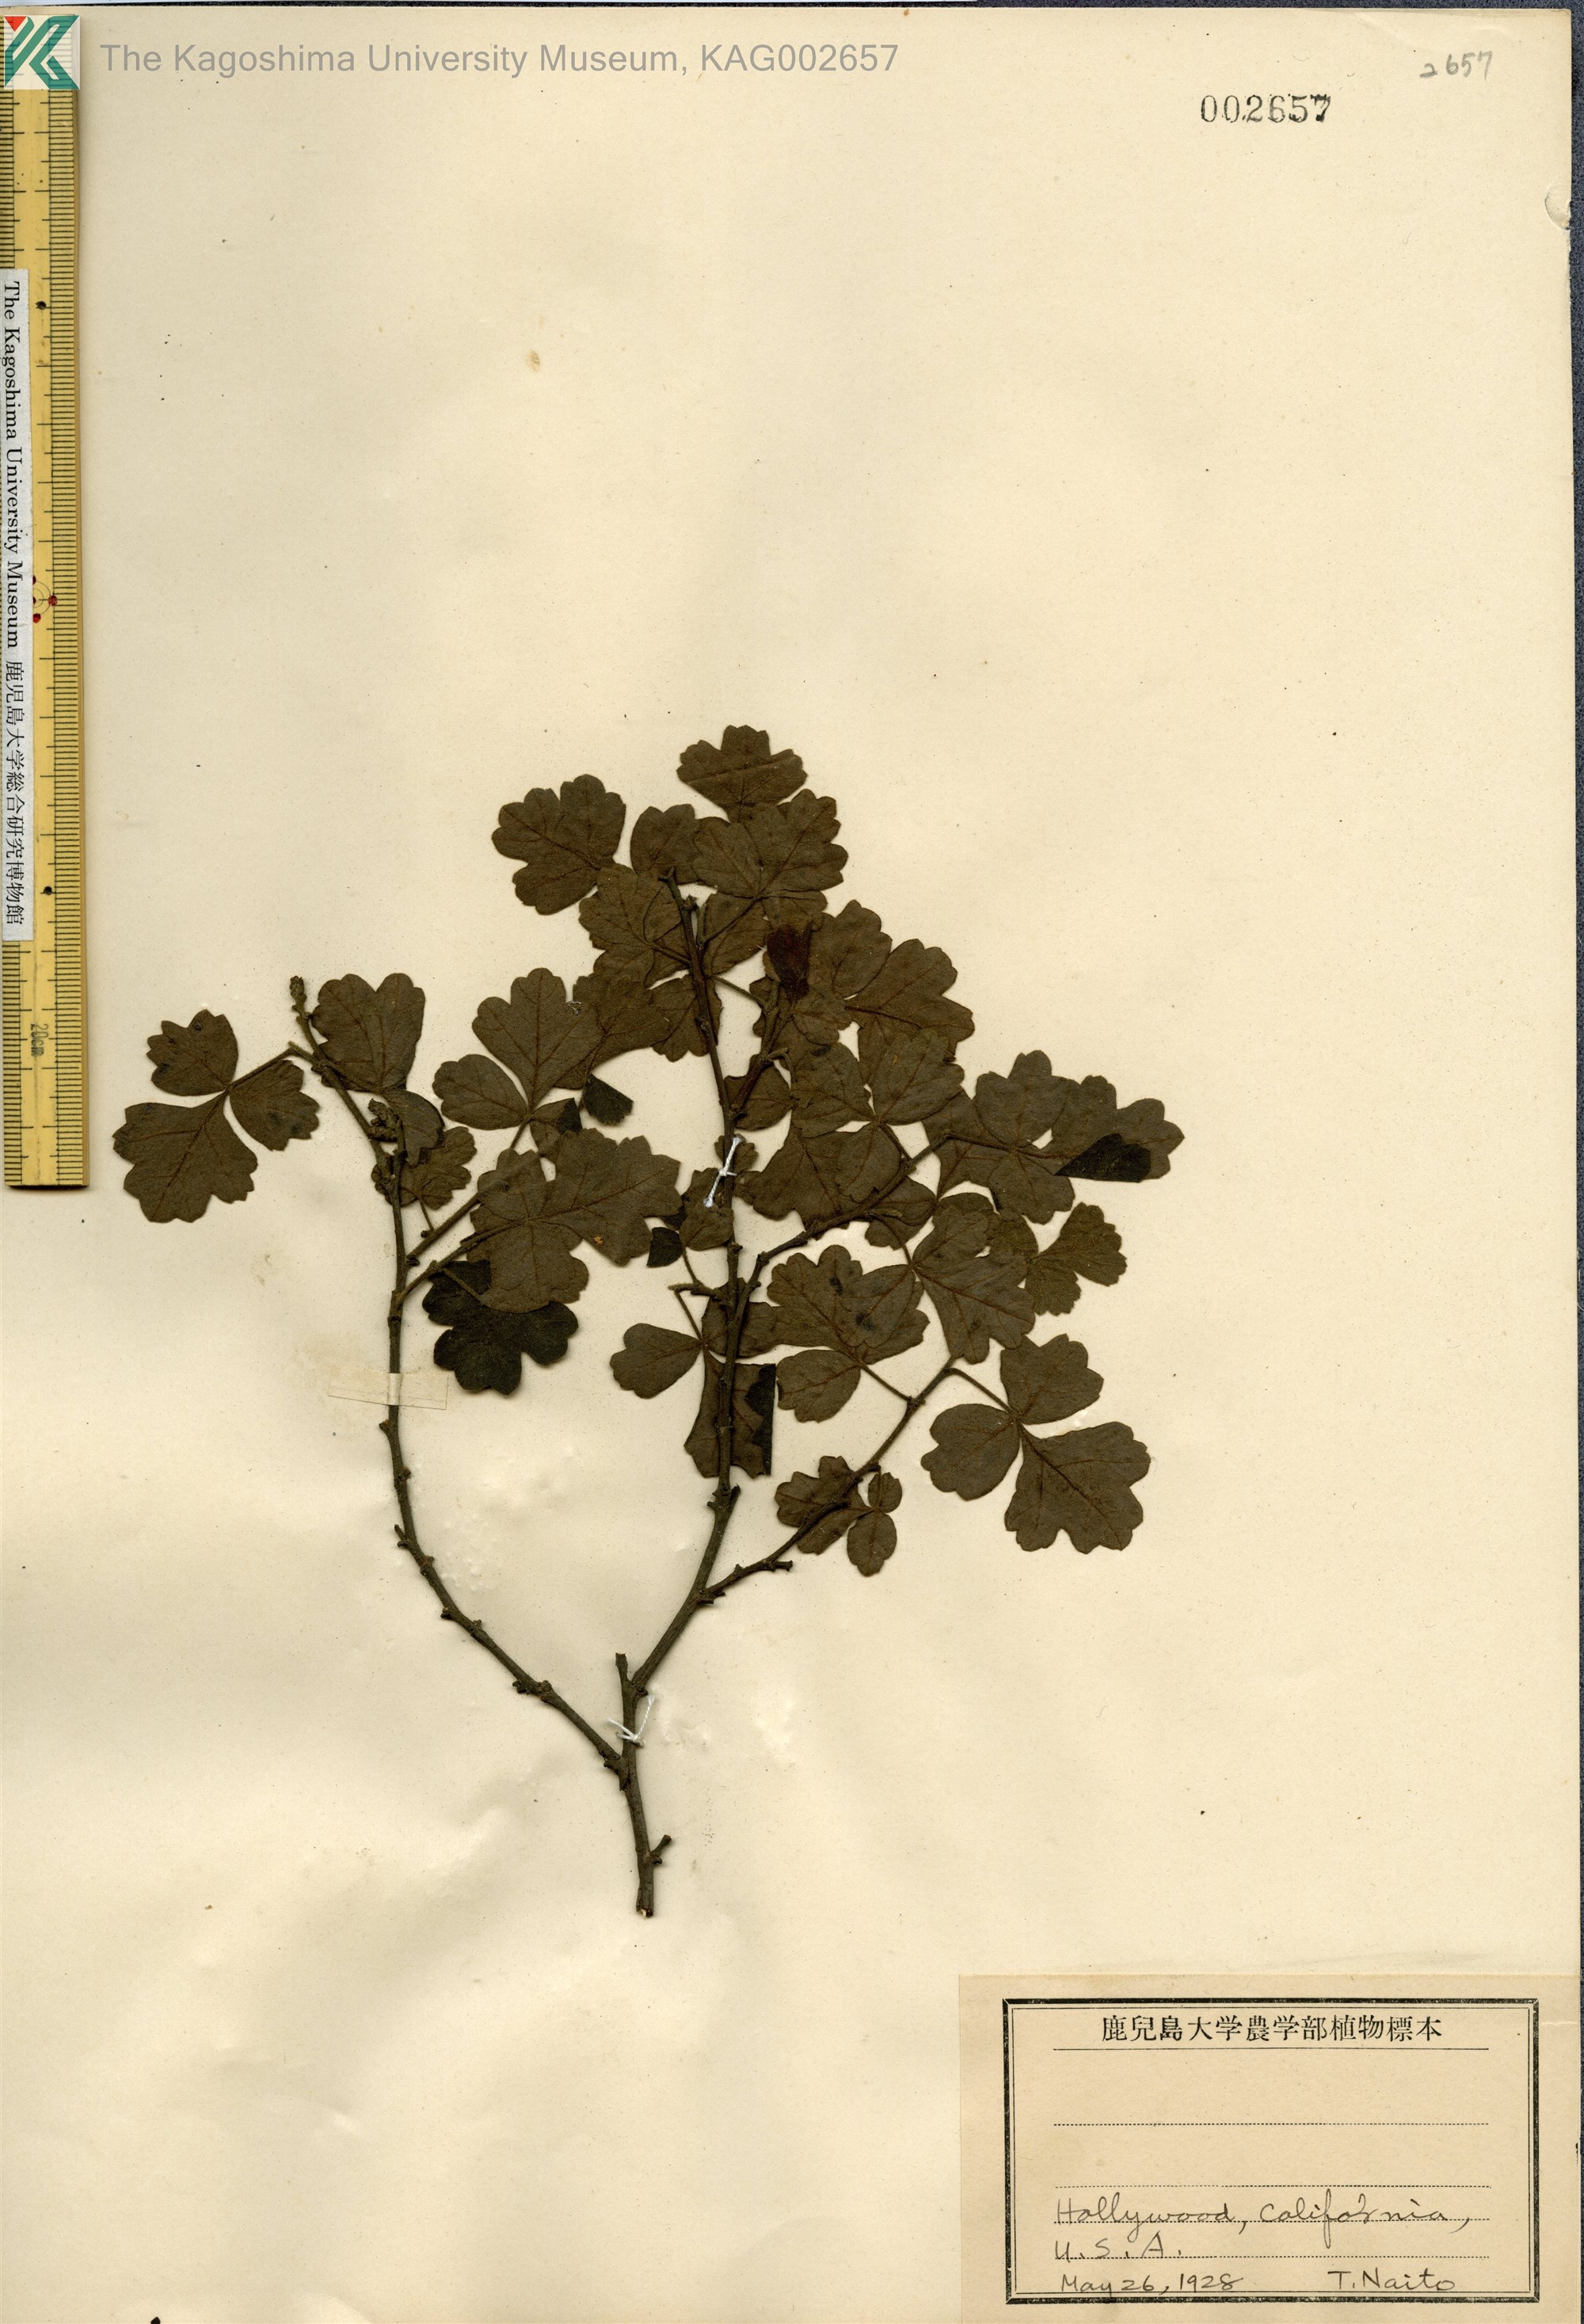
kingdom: Plantae
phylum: Tracheophyta
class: Magnoliopsida
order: Sapindales
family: Anacardiaceae
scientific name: Anacardiaceae
